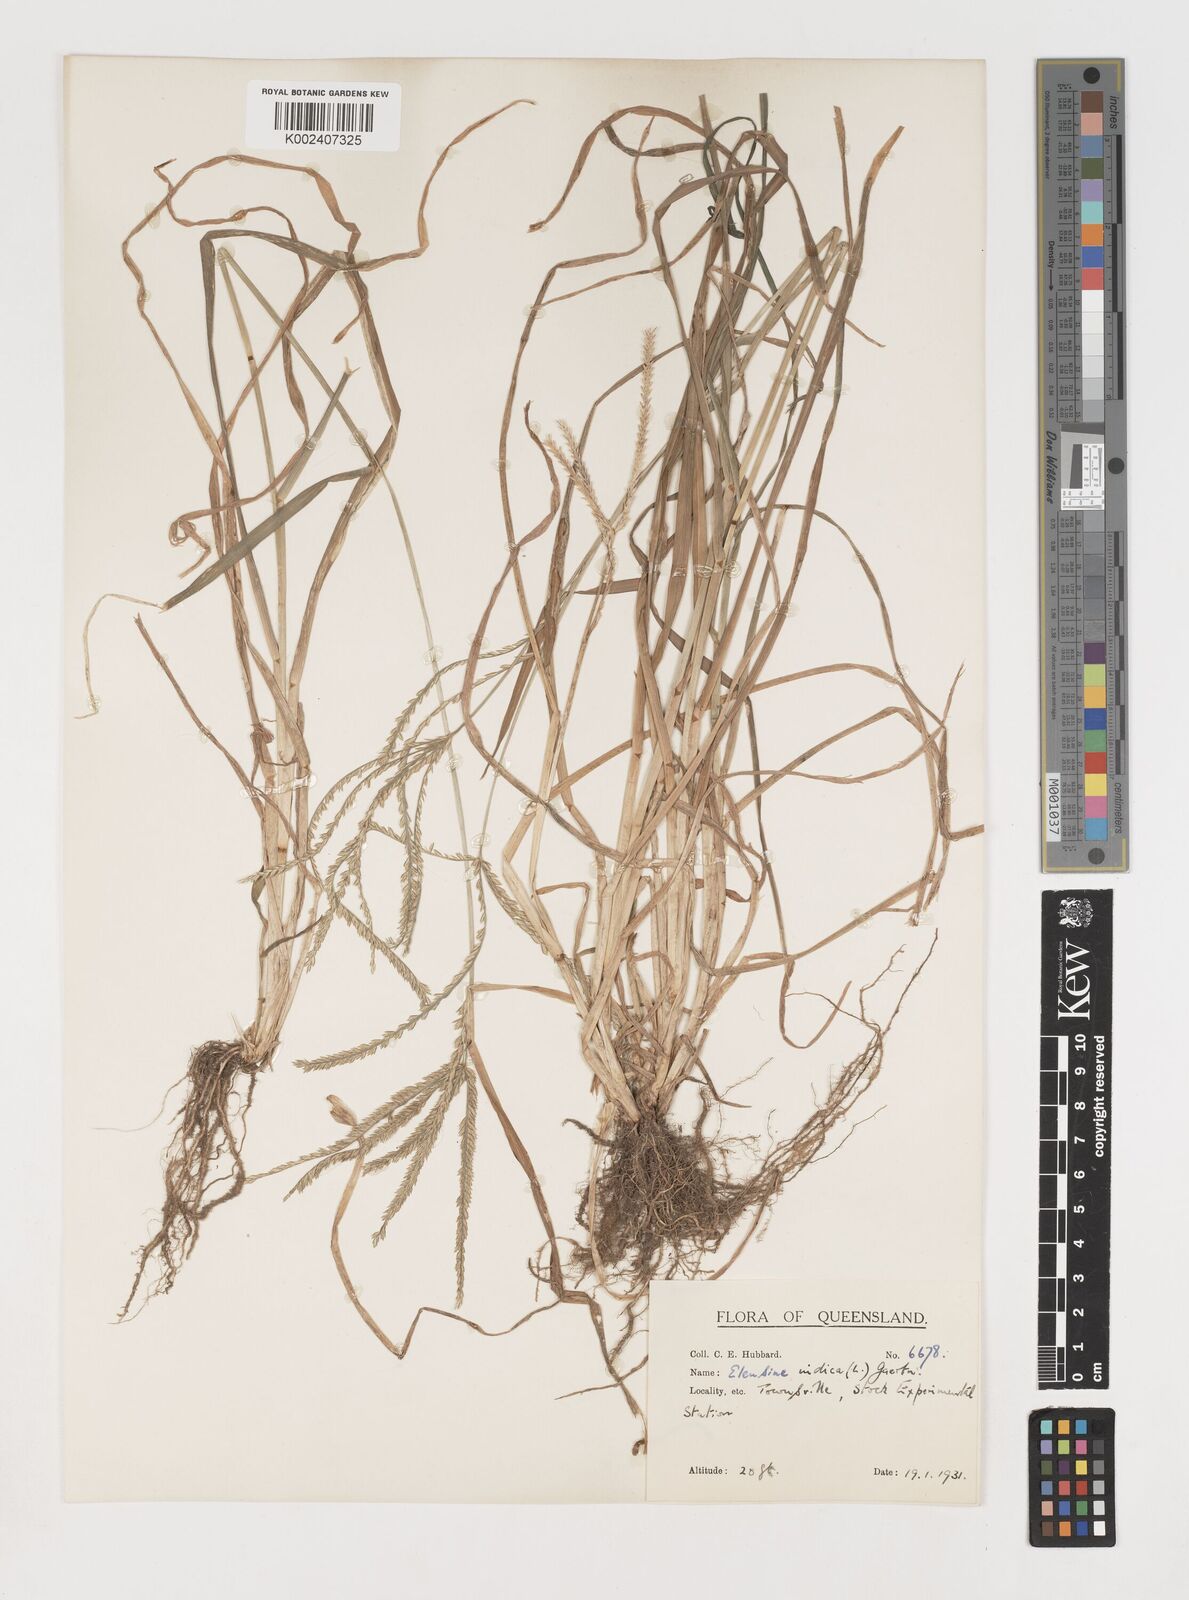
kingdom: Plantae
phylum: Tracheophyta
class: Liliopsida
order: Poales
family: Poaceae
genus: Eleusine
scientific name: Eleusine indica
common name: Yard-grass
